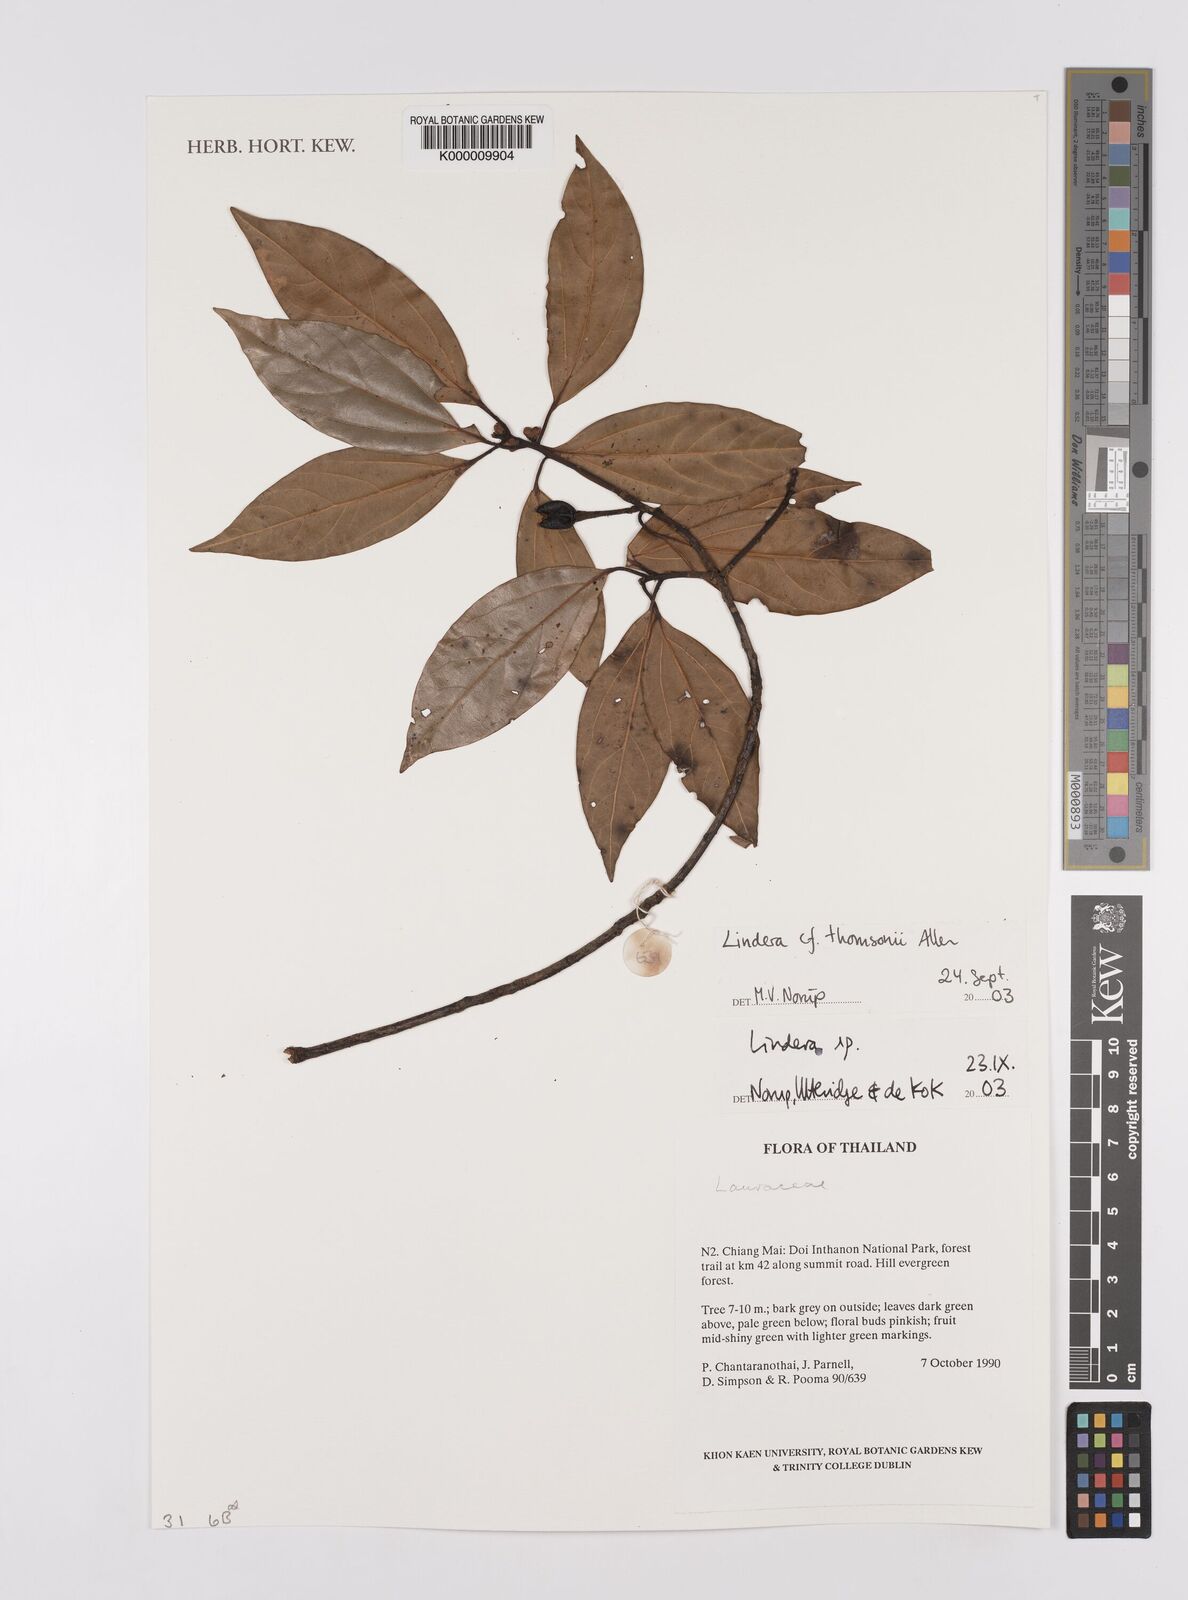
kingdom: Plantae
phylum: Tracheophyta
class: Magnoliopsida
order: Laurales
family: Lauraceae
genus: Lindera
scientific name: Lindera thomsonii
